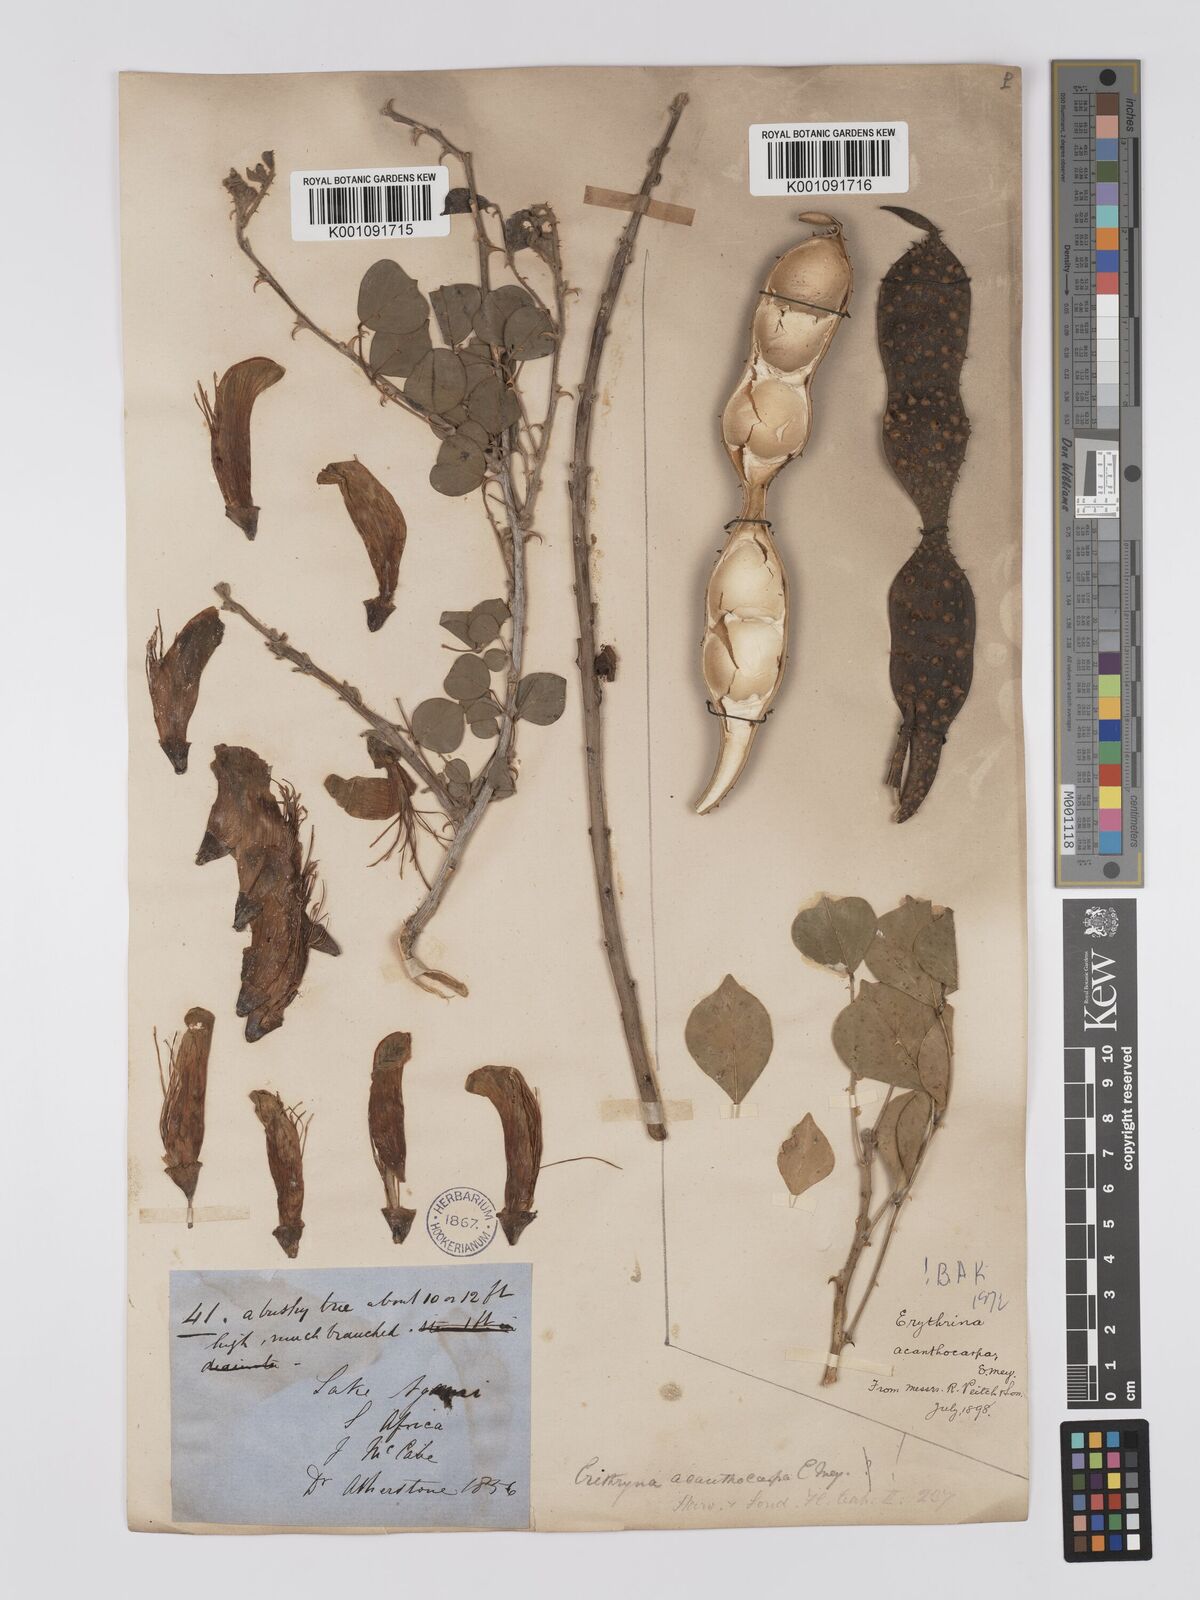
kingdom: Plantae
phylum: Tracheophyta
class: Magnoliopsida
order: Fabales
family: Fabaceae
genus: Erythrina
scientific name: Erythrina acanthocarpa
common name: Thorny coraltree
